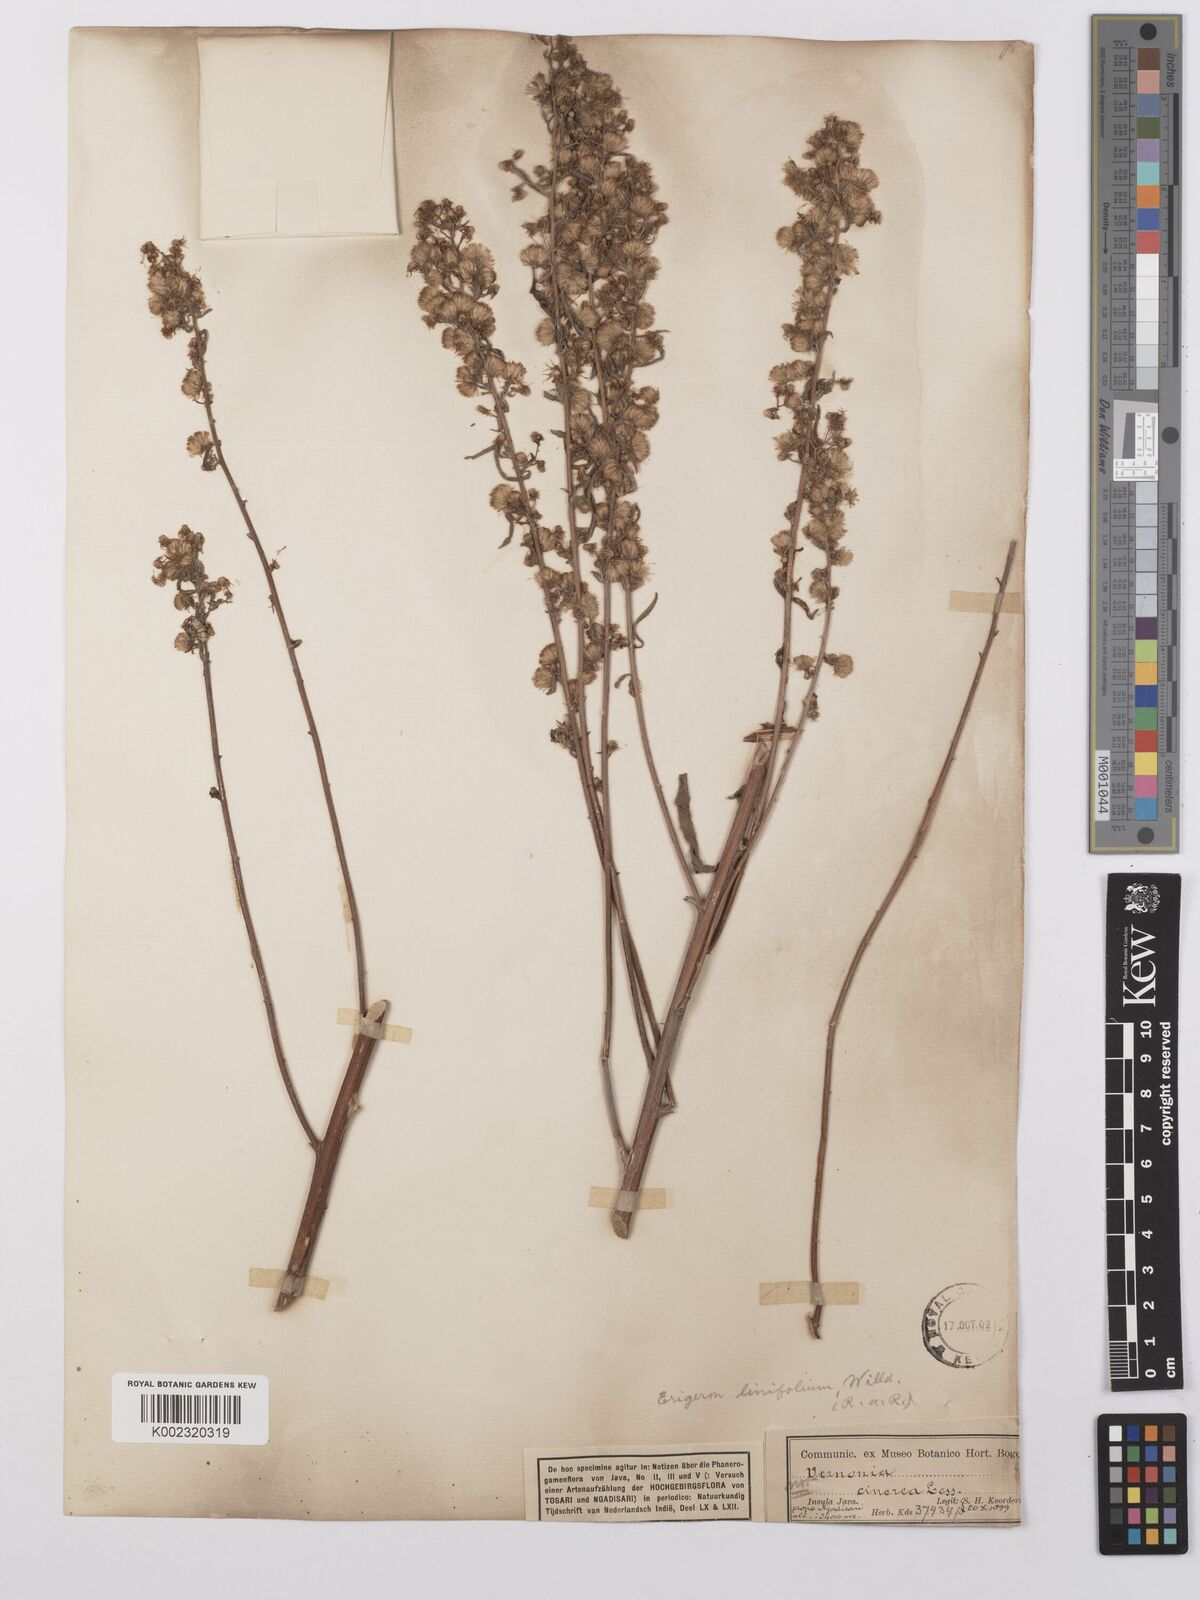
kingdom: Plantae
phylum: Tracheophyta
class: Magnoliopsida
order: Asterales
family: Asteraceae
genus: Erigeron
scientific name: Erigeron sumatrensis
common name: Daisy
